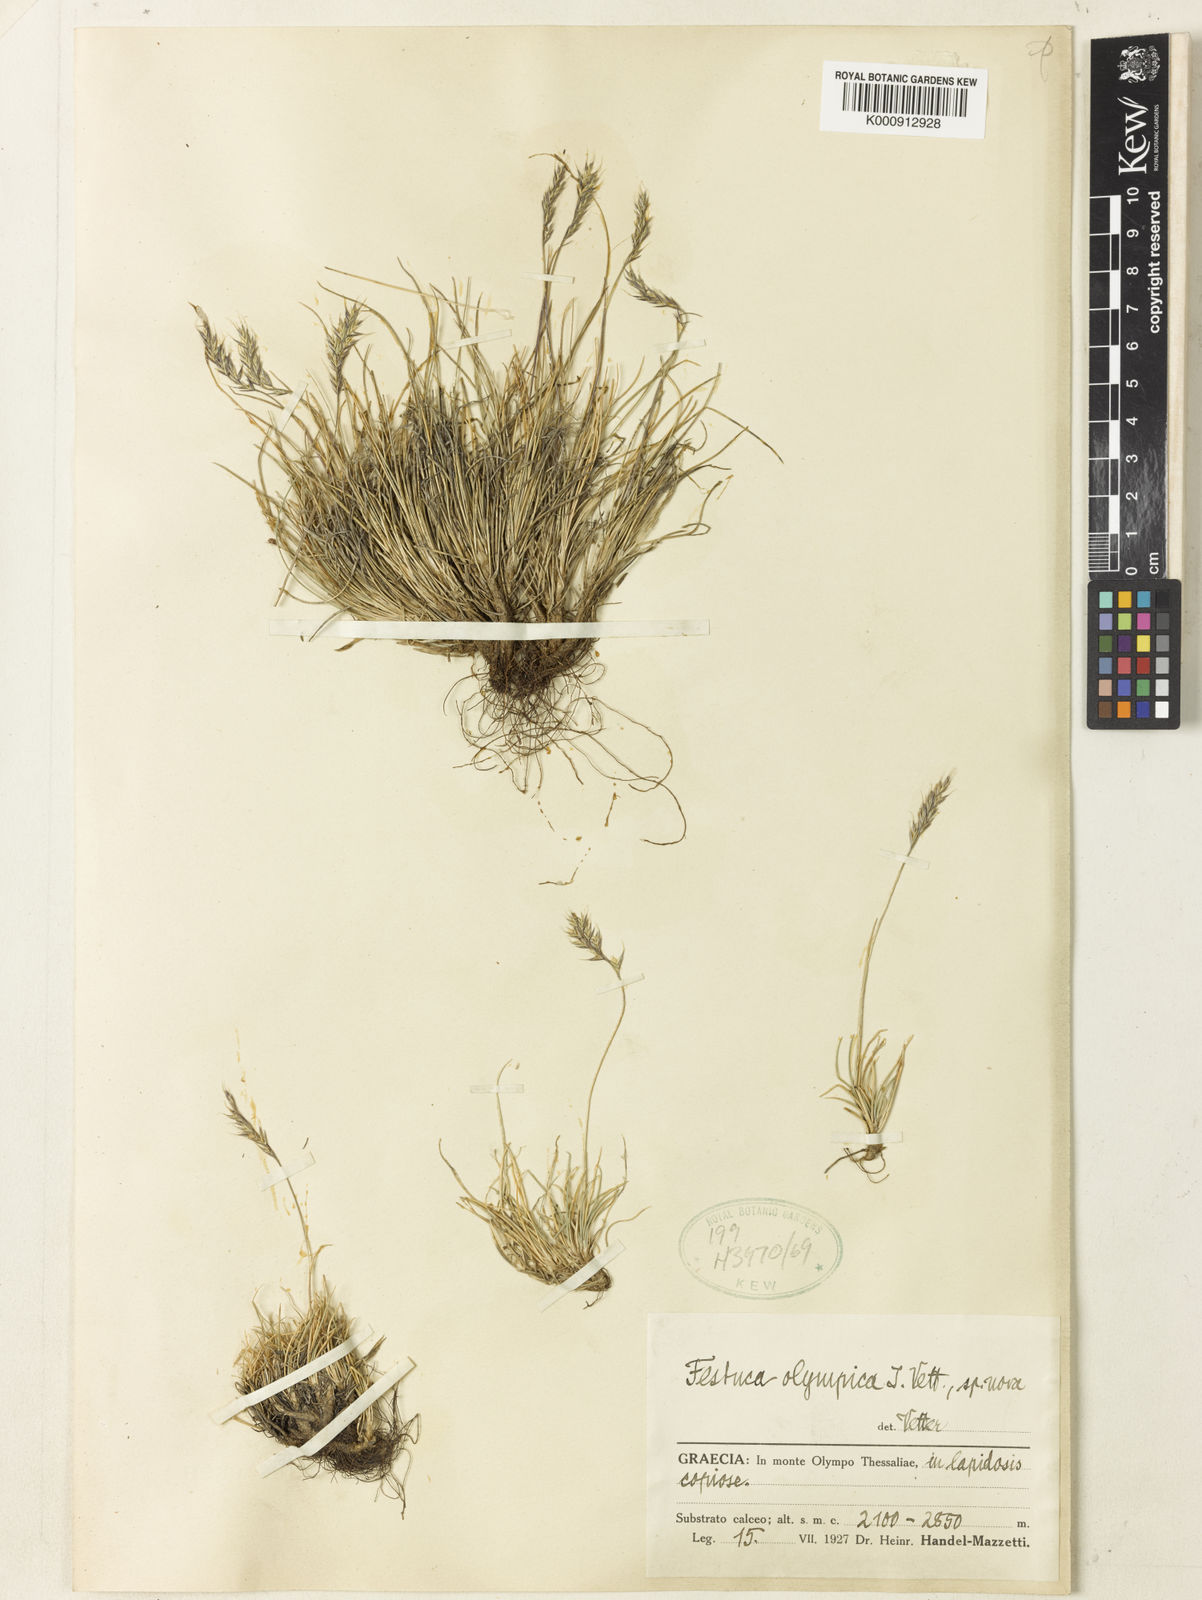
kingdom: Plantae
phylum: Tracheophyta
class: Liliopsida
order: Poales
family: Poaceae
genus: Festuca
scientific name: Festuca olympica
